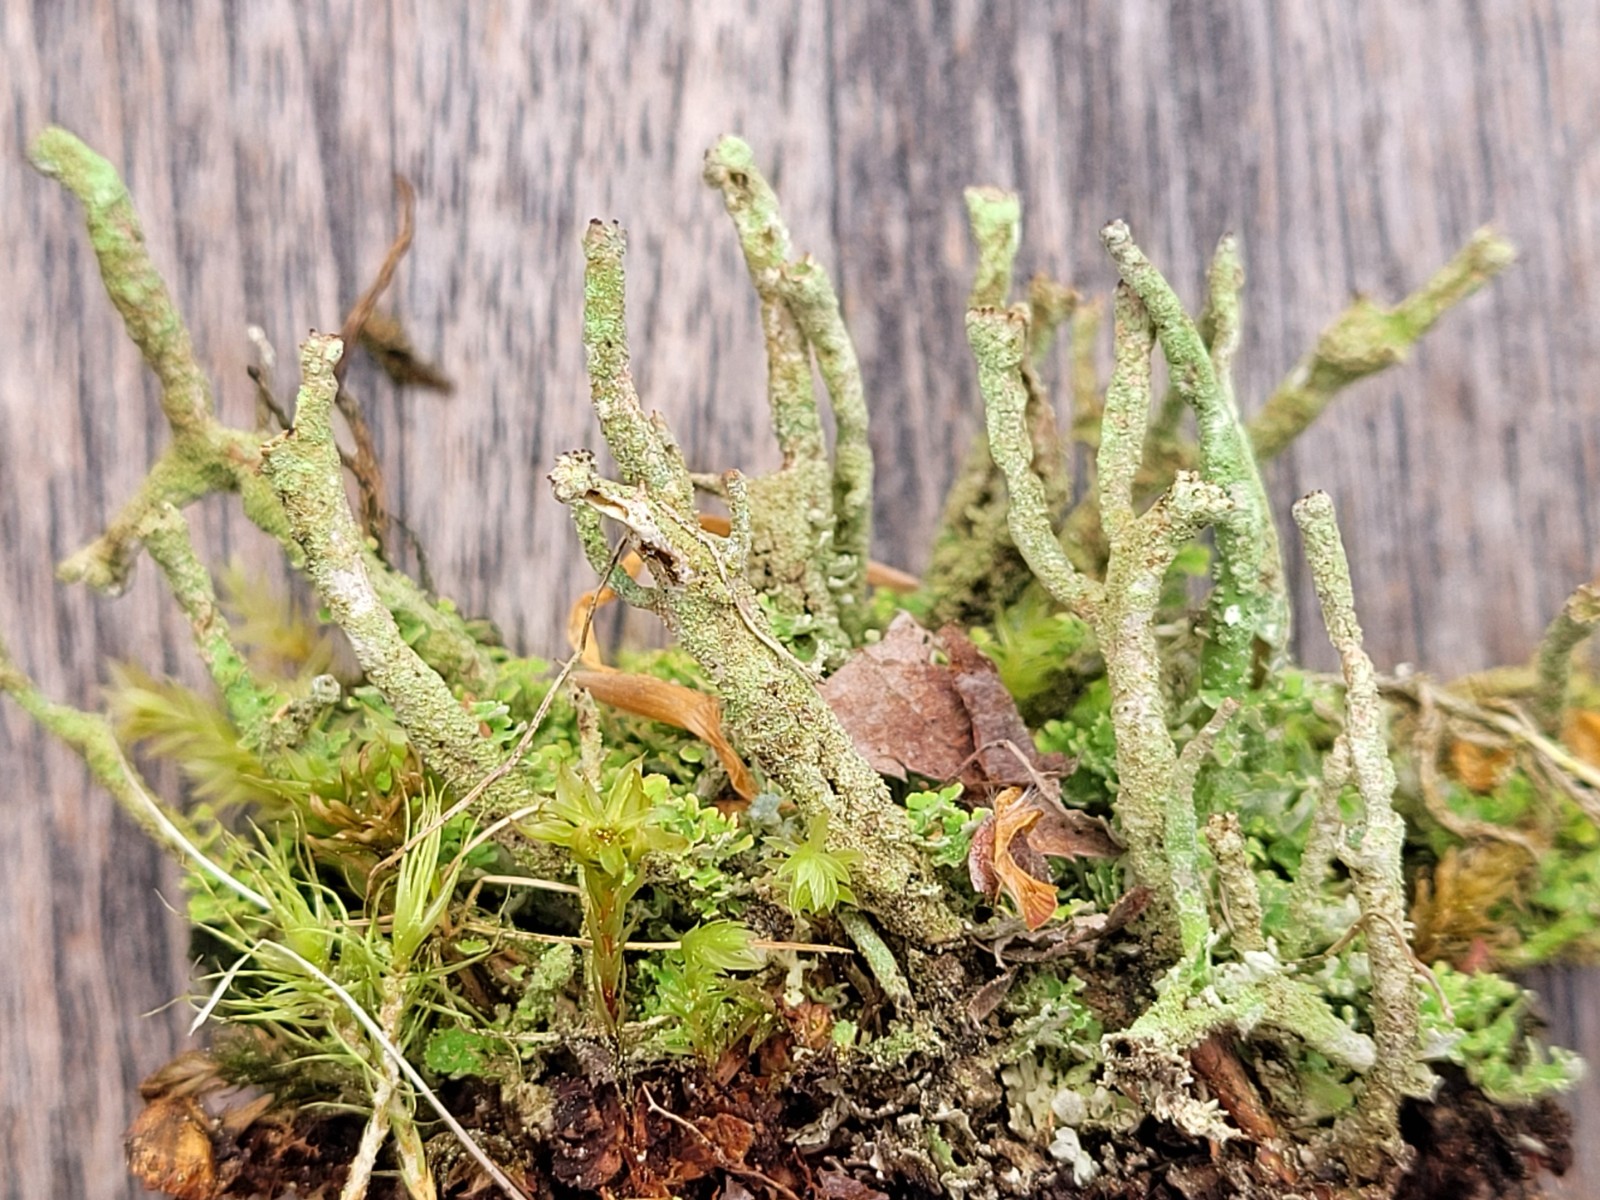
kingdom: Fungi
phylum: Ascomycota
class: Lecanoromycetes
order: Lecanorales
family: Cladoniaceae
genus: Cladonia
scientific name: Cladonia ochrochlora
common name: stød-bægerlav
